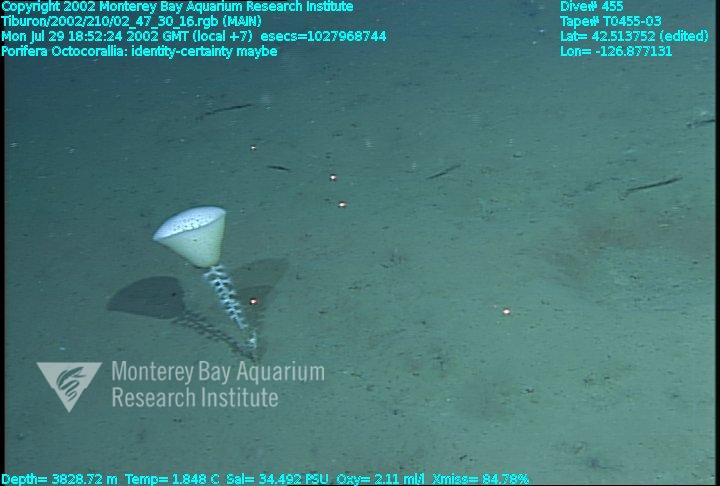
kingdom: Animalia
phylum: Porifera
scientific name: Porifera
